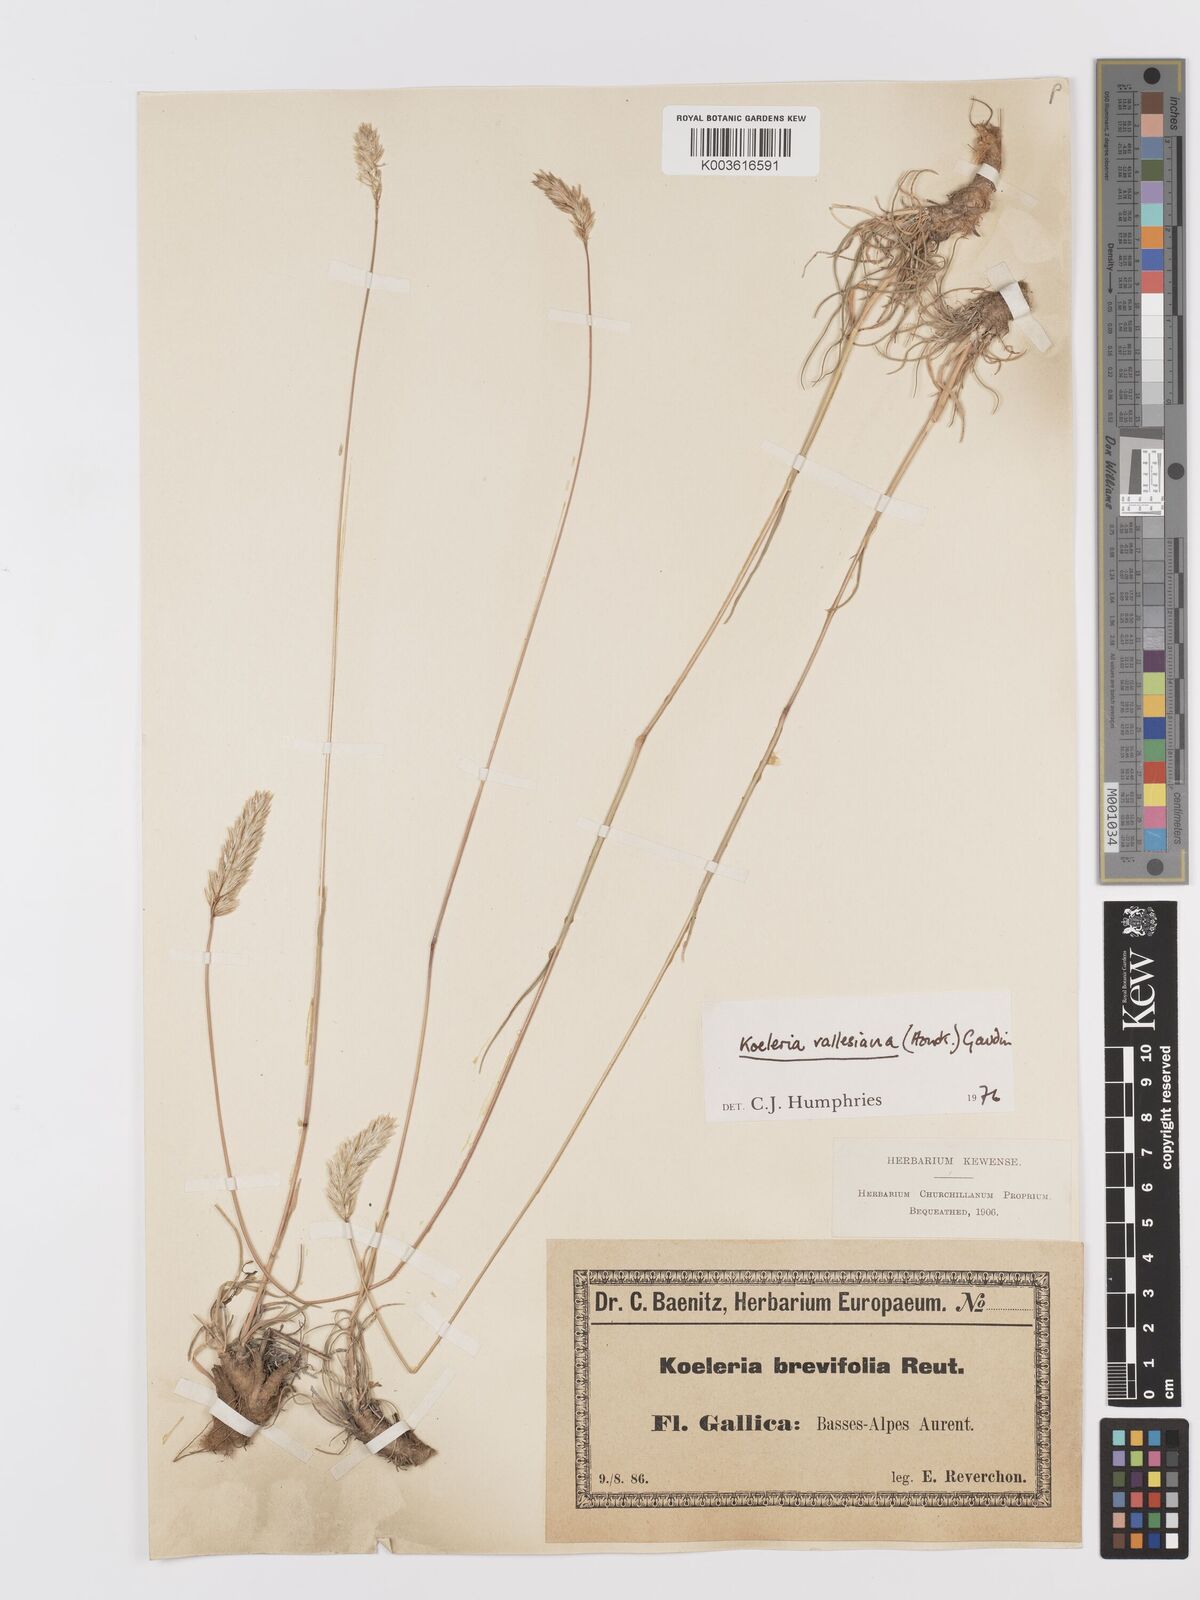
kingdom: Plantae
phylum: Tracheophyta
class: Liliopsida
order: Poales
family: Poaceae
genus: Koeleria
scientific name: Koeleria vallesiana
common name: Somerset hair-grass
